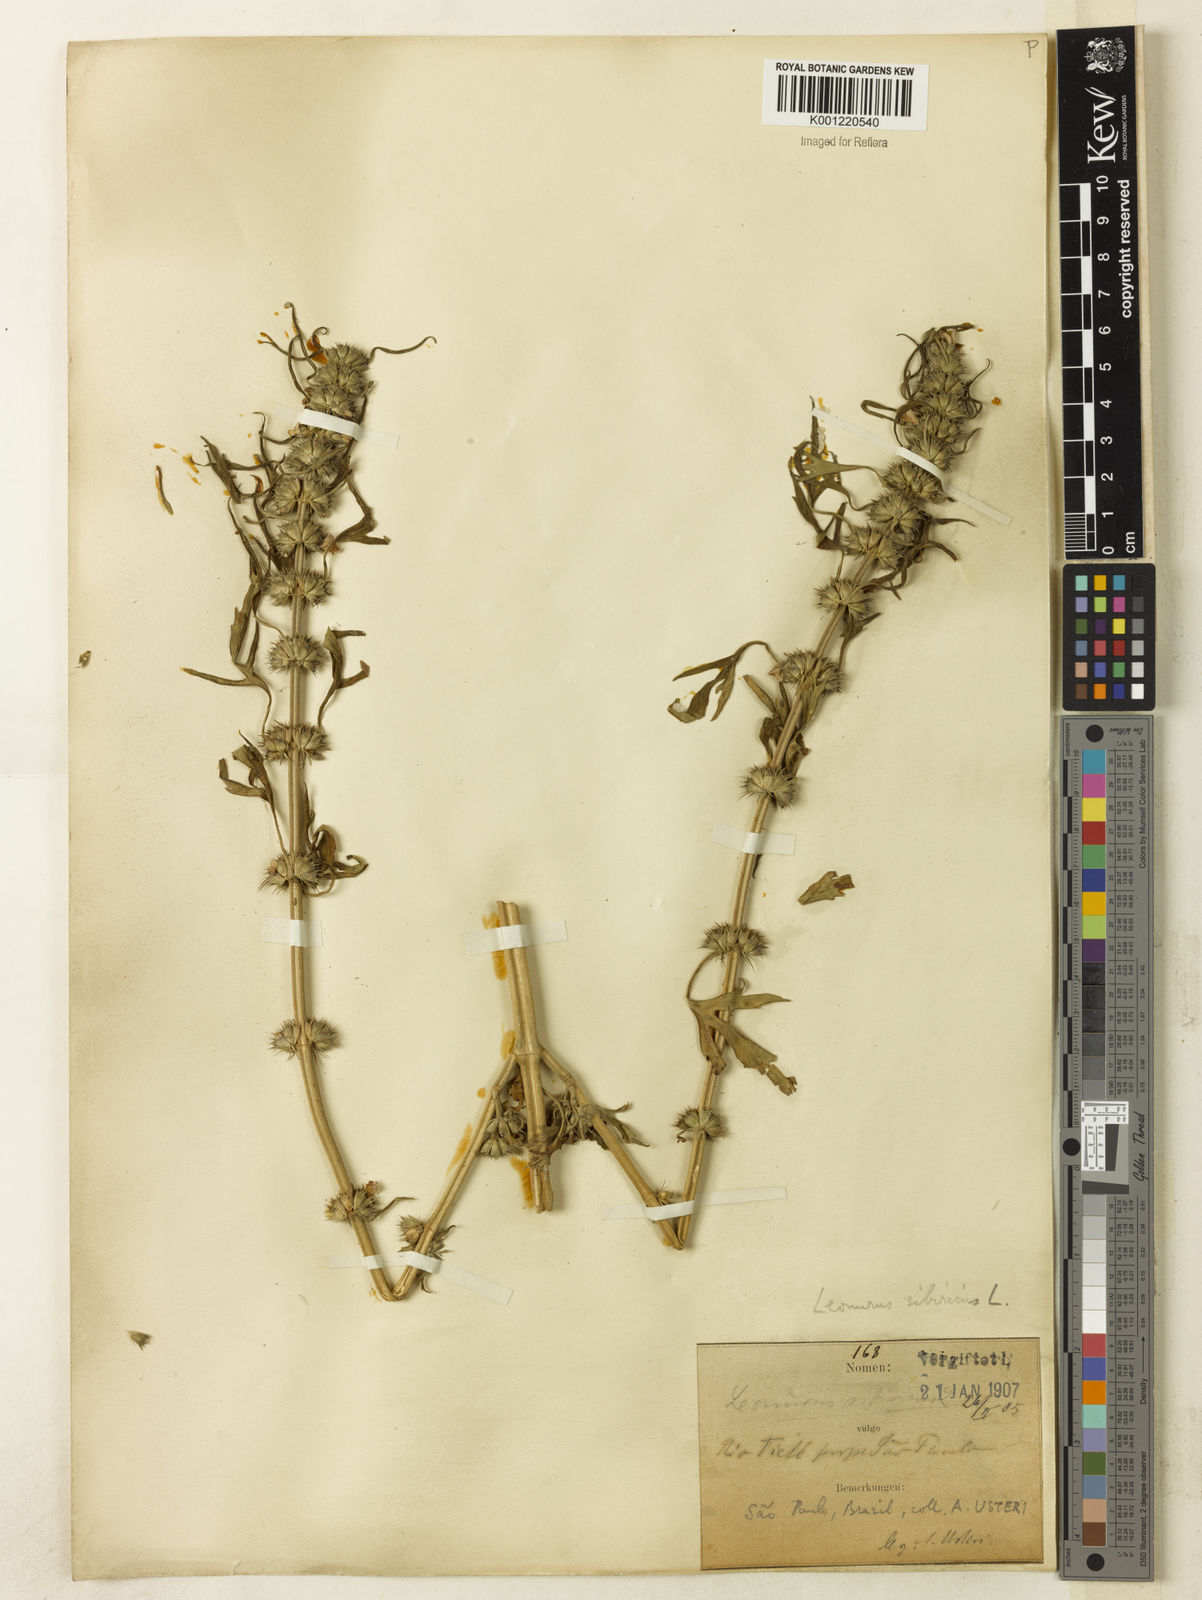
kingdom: Plantae
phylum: Tracheophyta
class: Magnoliopsida
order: Lamiales
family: Lamiaceae
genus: Leonurus
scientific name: Leonurus japonicus
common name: Honeyweed
